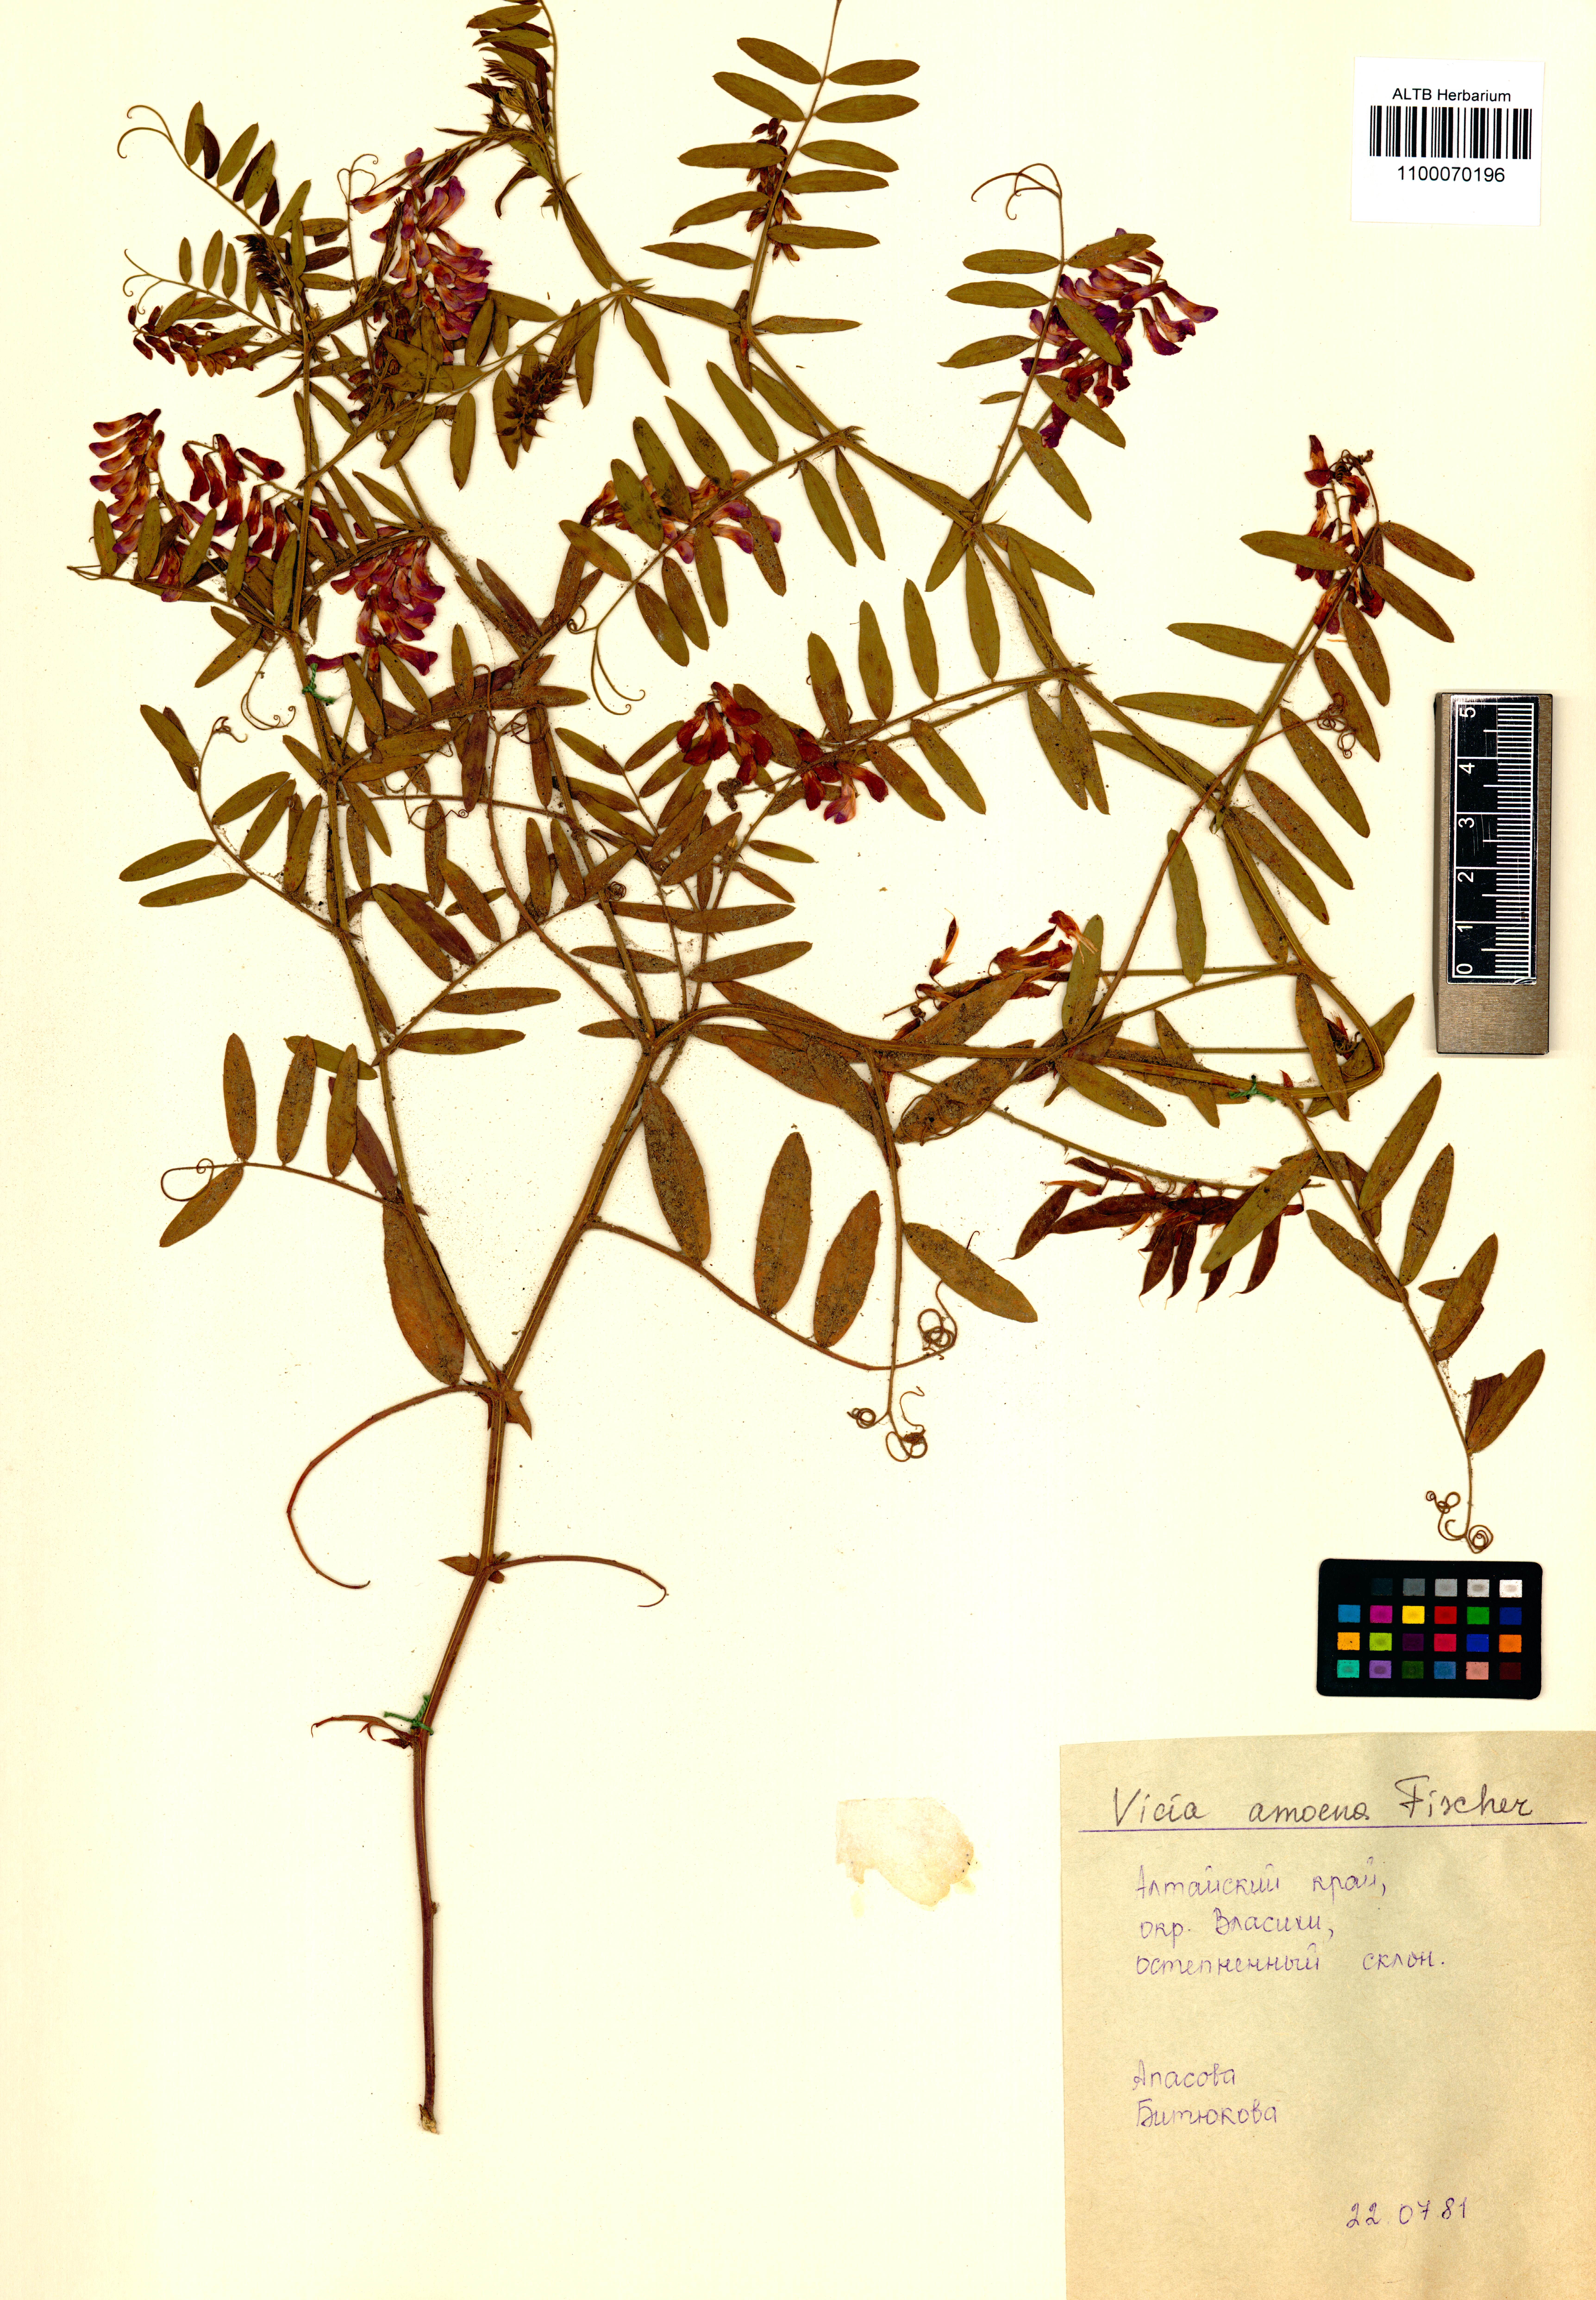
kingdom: Plantae
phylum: Tracheophyta
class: Magnoliopsida
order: Fabales
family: Fabaceae
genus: Vicia
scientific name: Vicia amoena
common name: Cheder ebs
